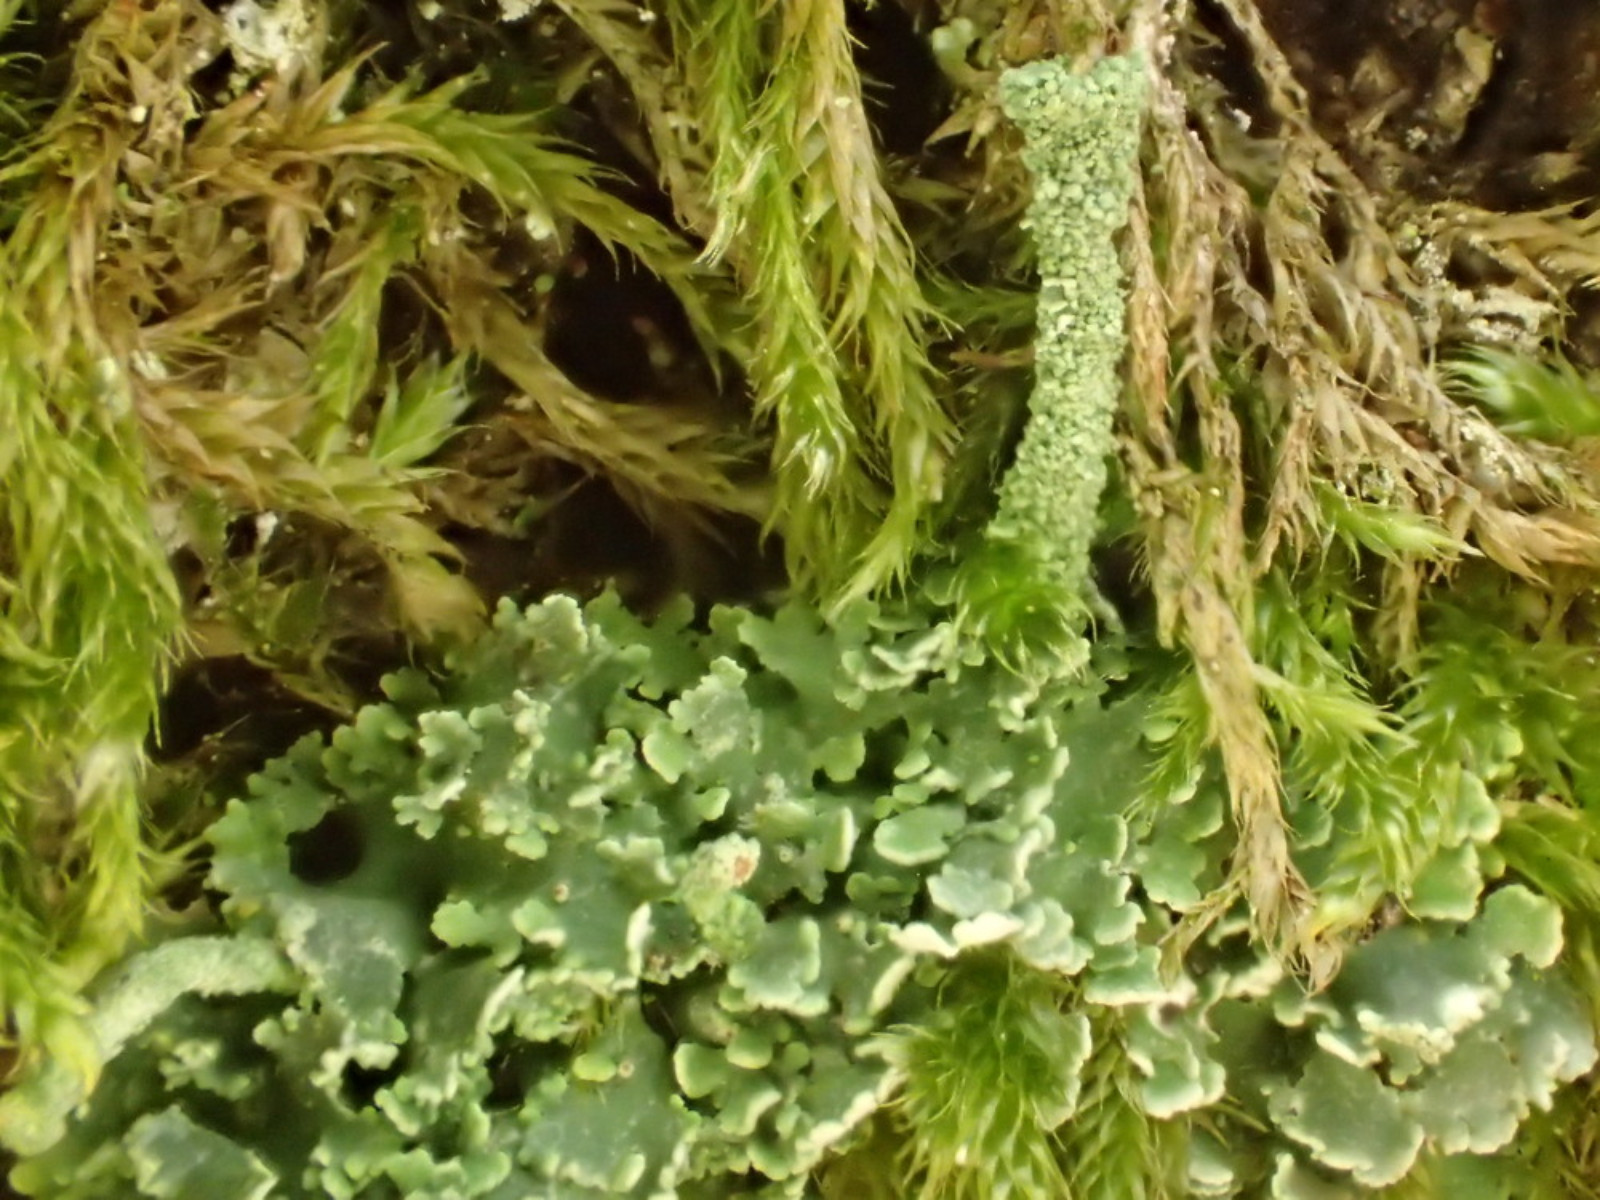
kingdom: Fungi
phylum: Ascomycota
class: Lecanoromycetes
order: Lecanorales
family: Cladoniaceae
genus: Cladonia
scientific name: Cladonia
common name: brungrøn bægerlav
